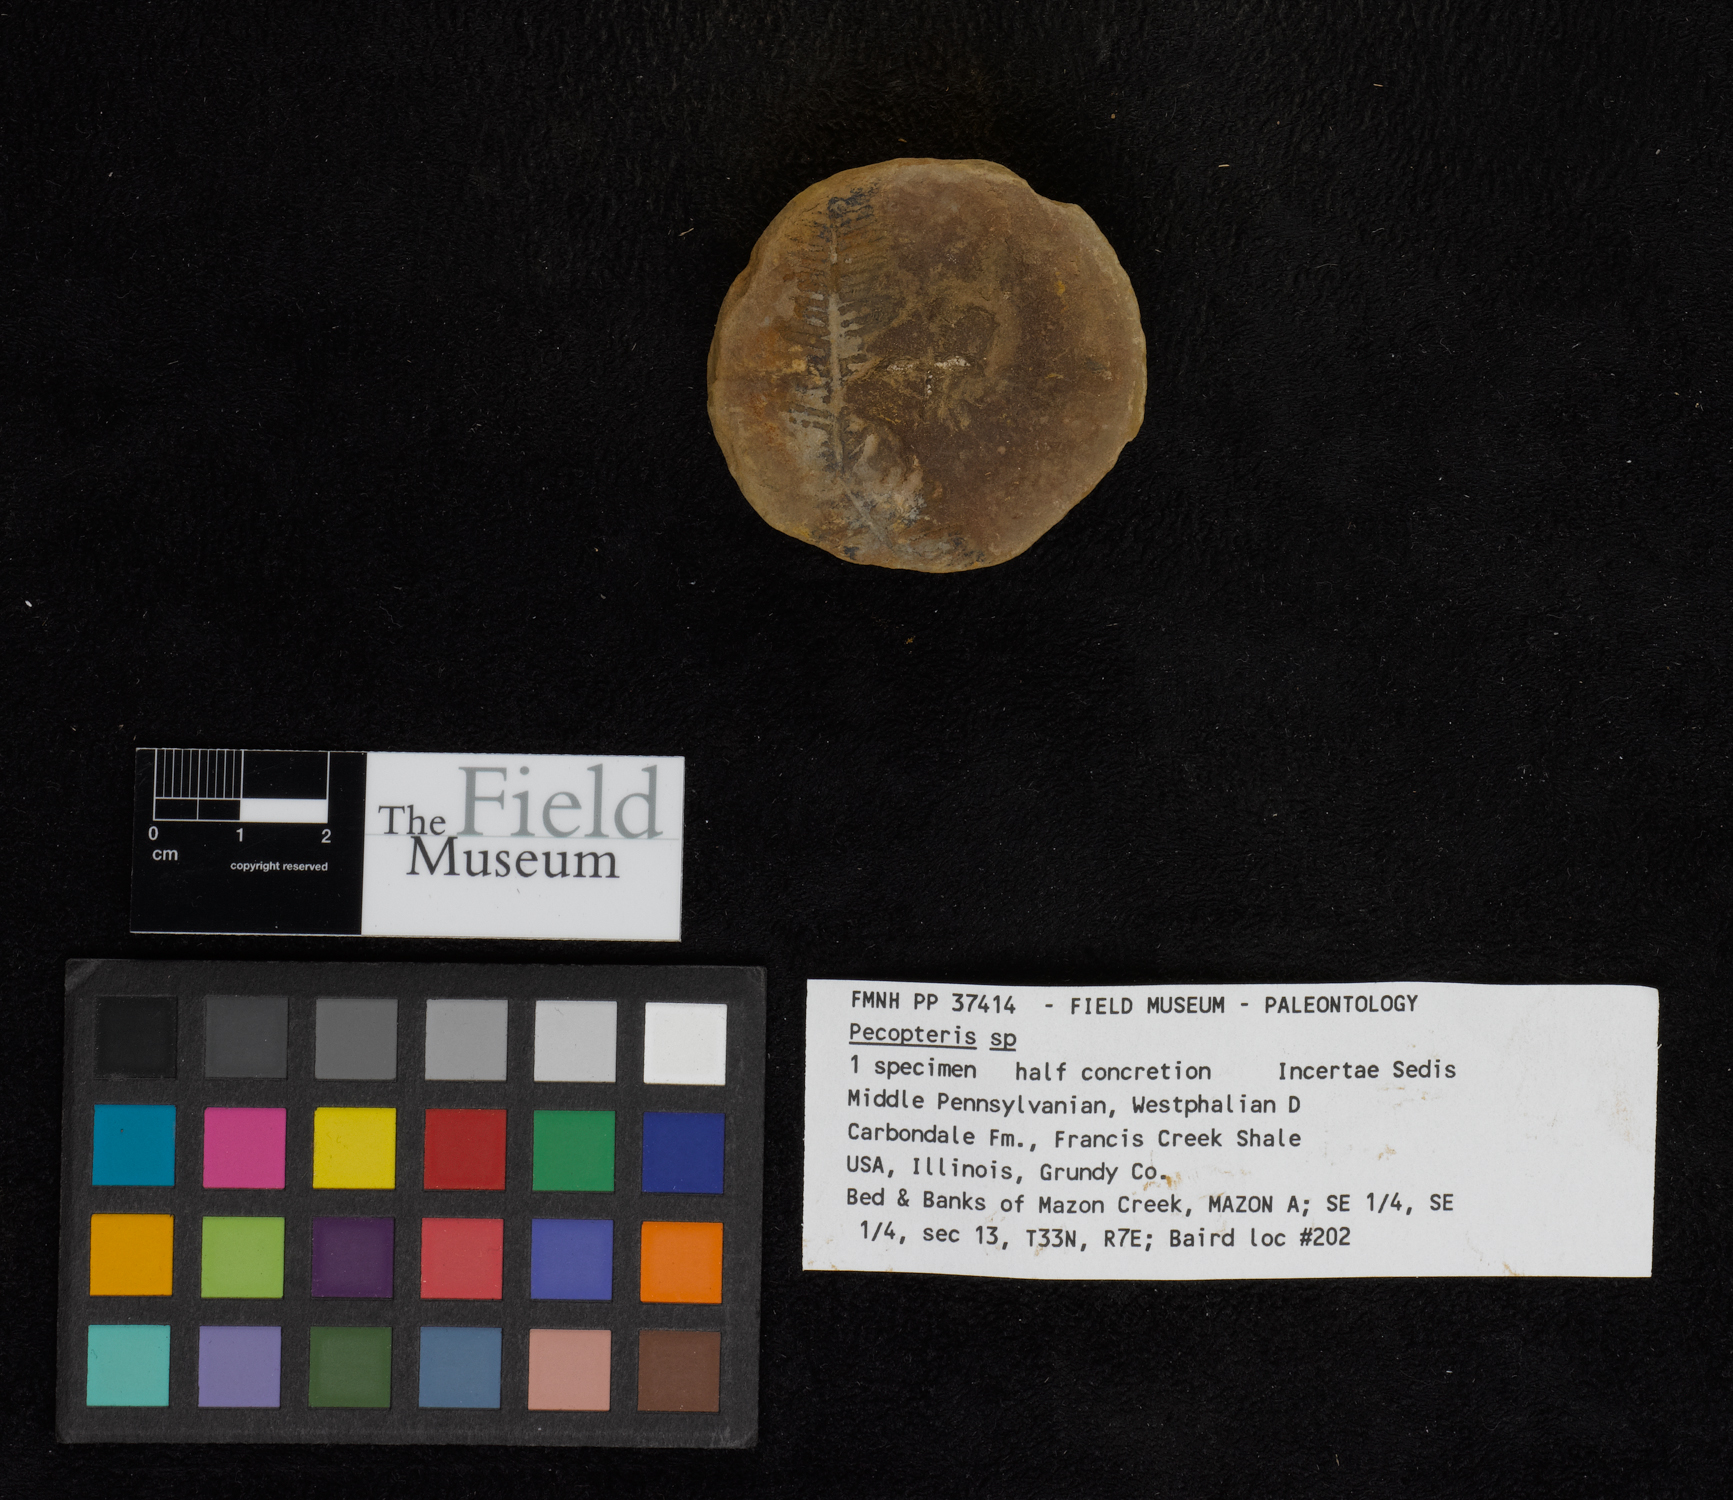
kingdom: Plantae
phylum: Tracheophyta
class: Polypodiopsida
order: Marattiales
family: Asterothecaceae
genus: Pecopteris
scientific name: Pecopteris
